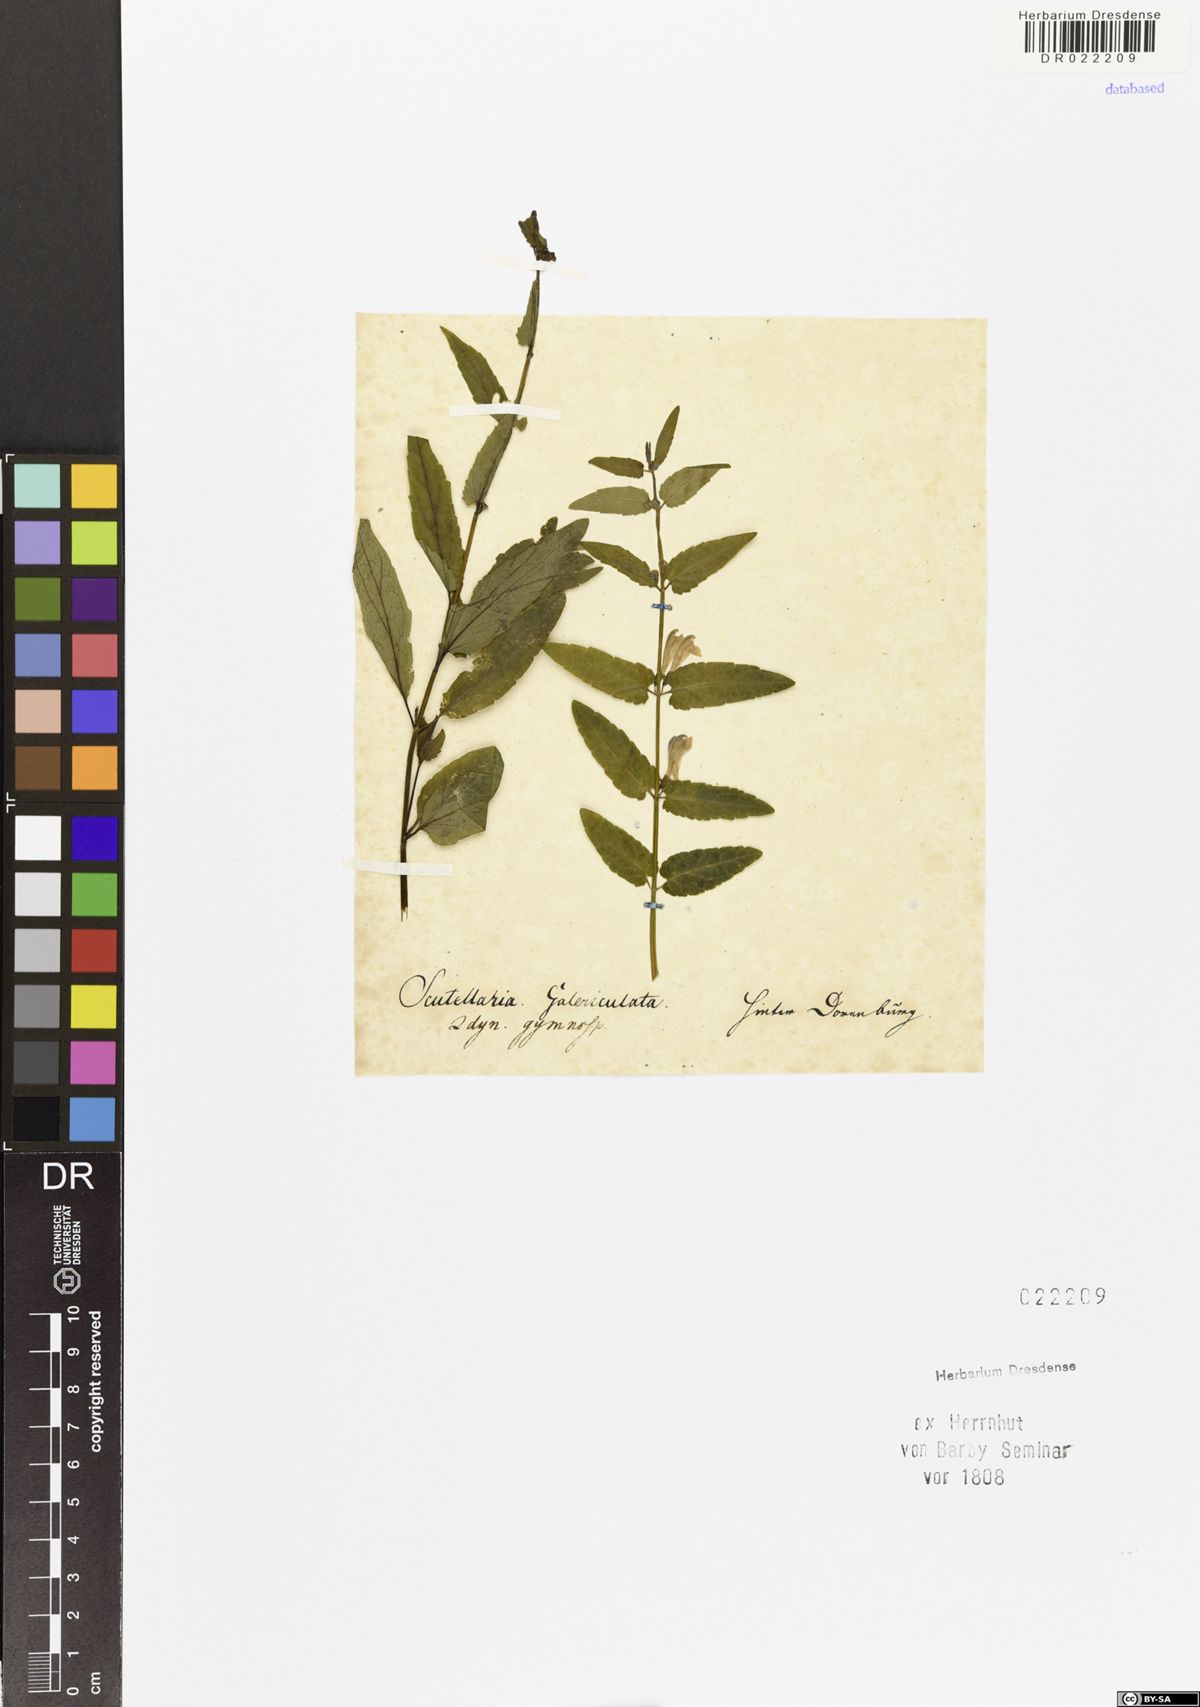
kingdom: Plantae
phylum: Tracheophyta
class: Magnoliopsida
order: Lamiales
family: Lamiaceae
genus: Scutellaria
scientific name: Scutellaria galericulata
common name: Skullcap
